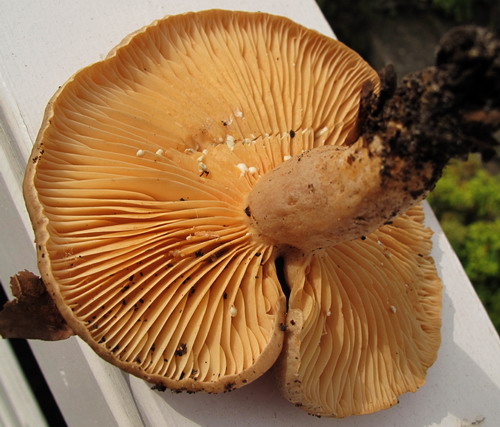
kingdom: Fungi
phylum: Basidiomycota
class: Agaricomycetes
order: Russulales
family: Russulaceae
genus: Lactarius
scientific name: Lactarius pyrogalus
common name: hassel-mælkehat
